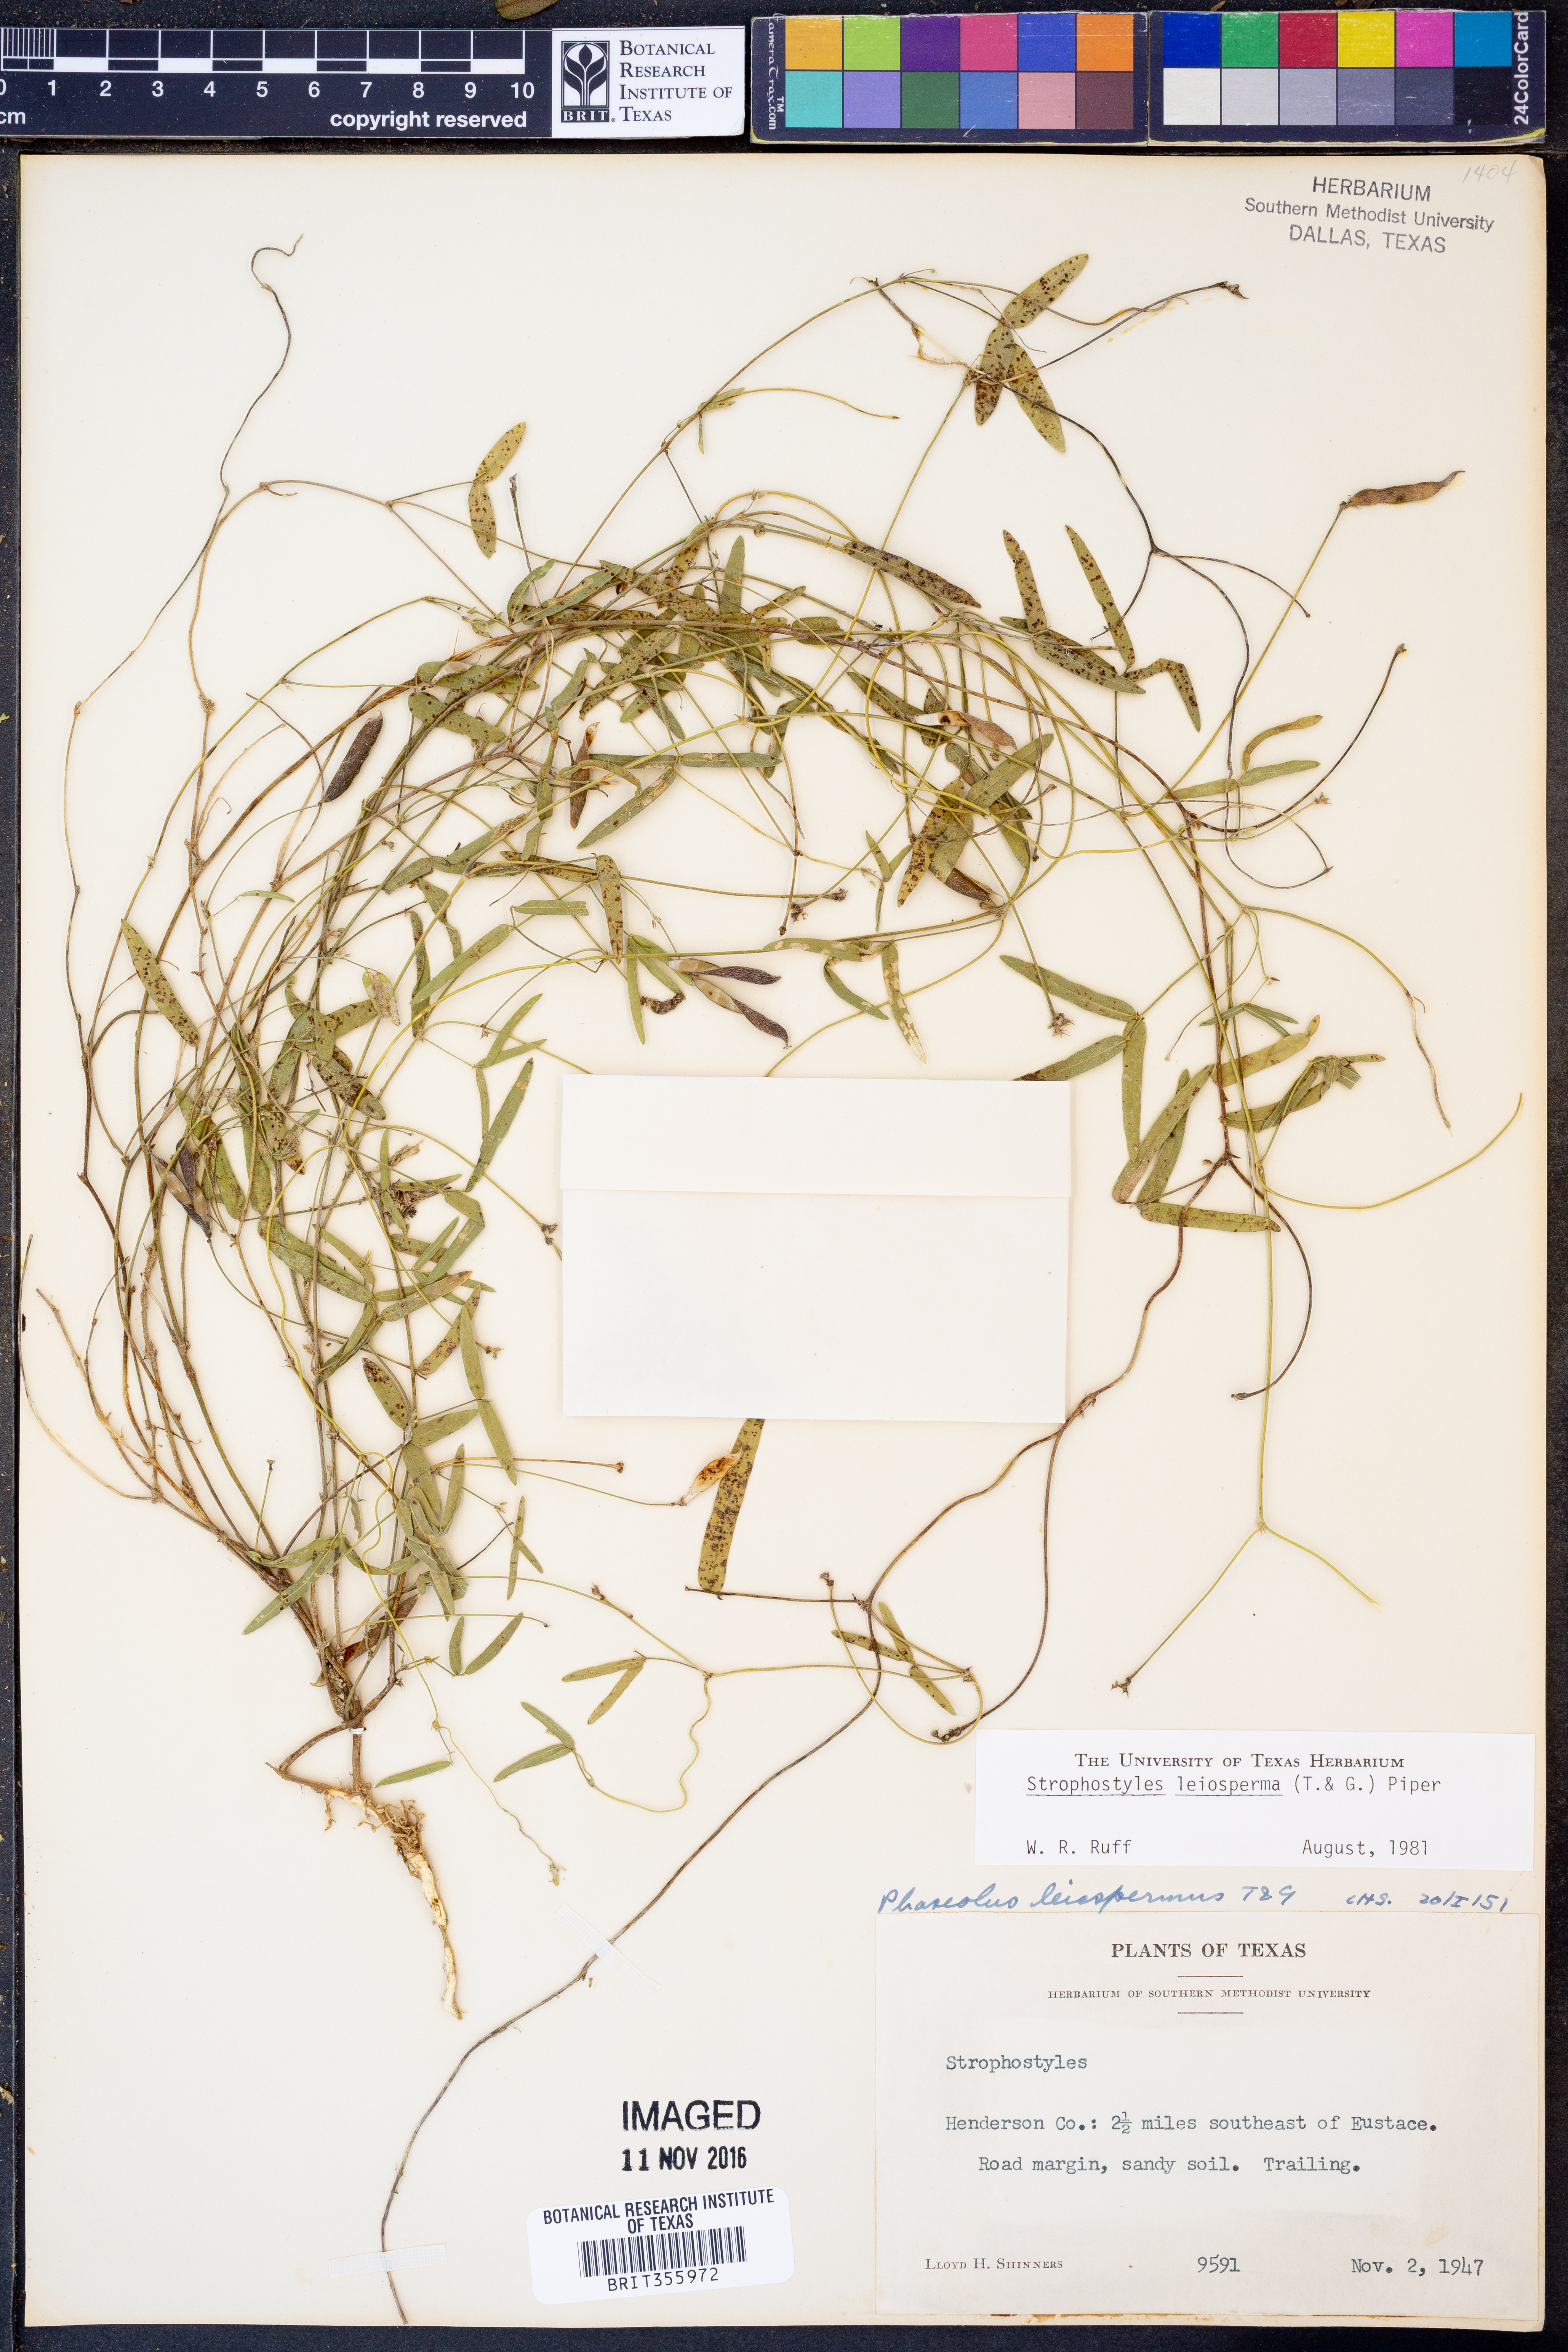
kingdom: Plantae
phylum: Tracheophyta
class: Magnoliopsida
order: Fabales
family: Fabaceae
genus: Strophostyles
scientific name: Strophostyles leiosperma
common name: Smooth-seed wild bean
